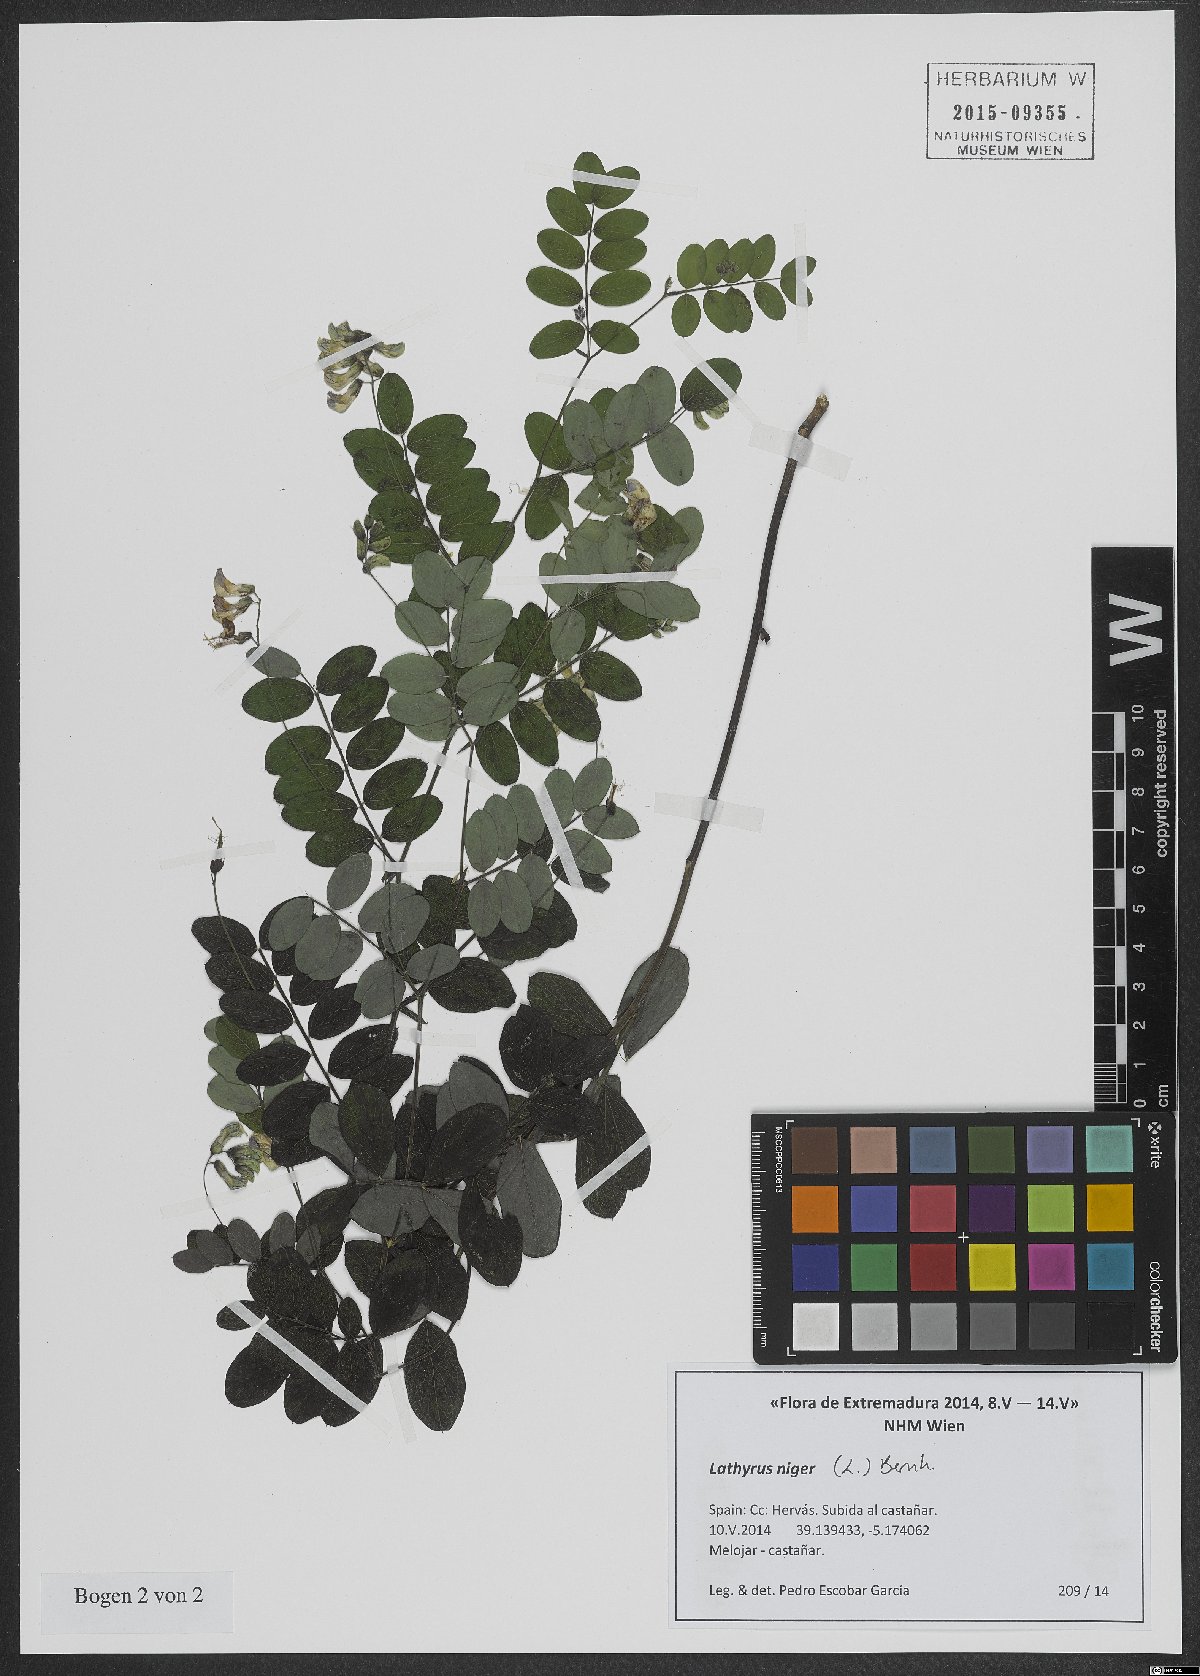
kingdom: Plantae
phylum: Tracheophyta
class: Magnoliopsida
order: Fabales
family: Fabaceae
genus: Lathyrus
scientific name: Lathyrus niger
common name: Black pea
